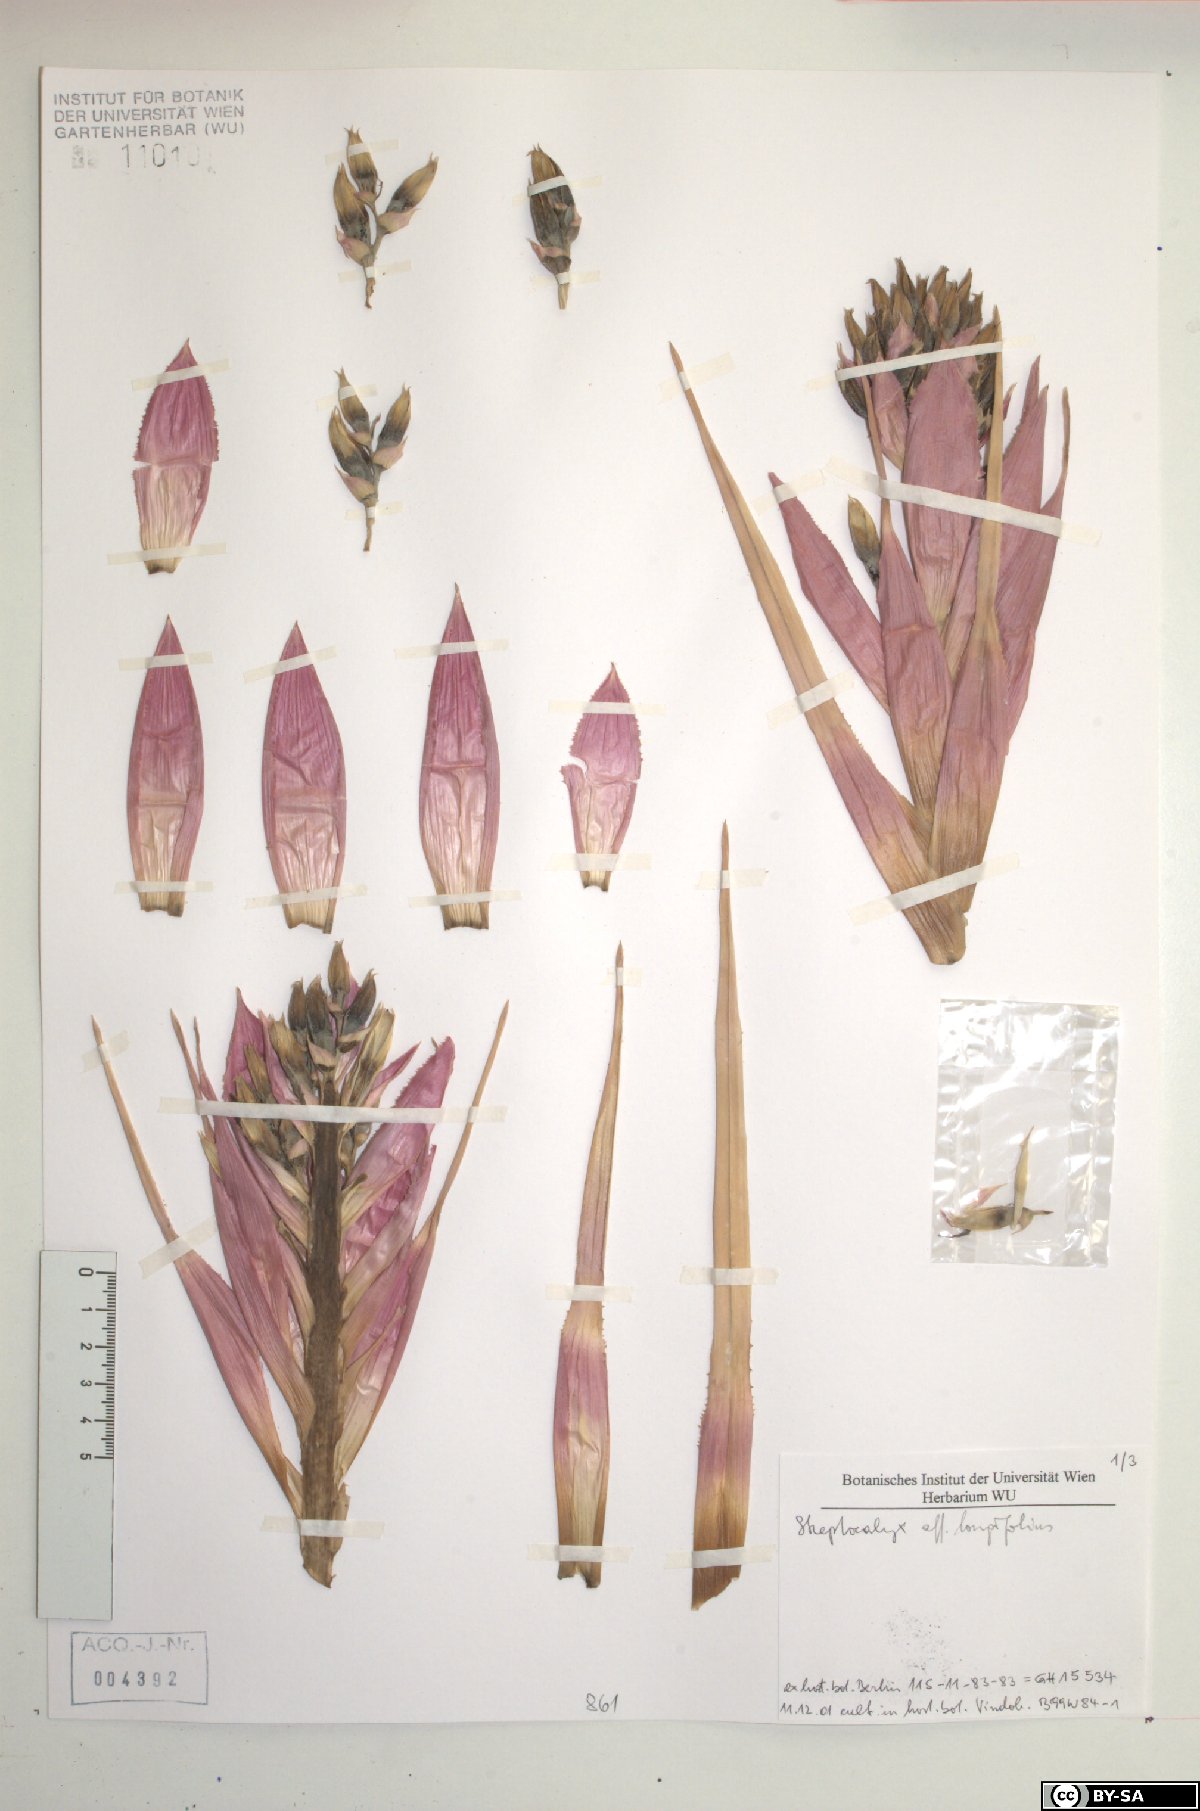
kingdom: Plantae
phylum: Tracheophyta
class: Liliopsida
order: Poales
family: Bromeliaceae
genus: Aechmea
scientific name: Aechmea longifolia
